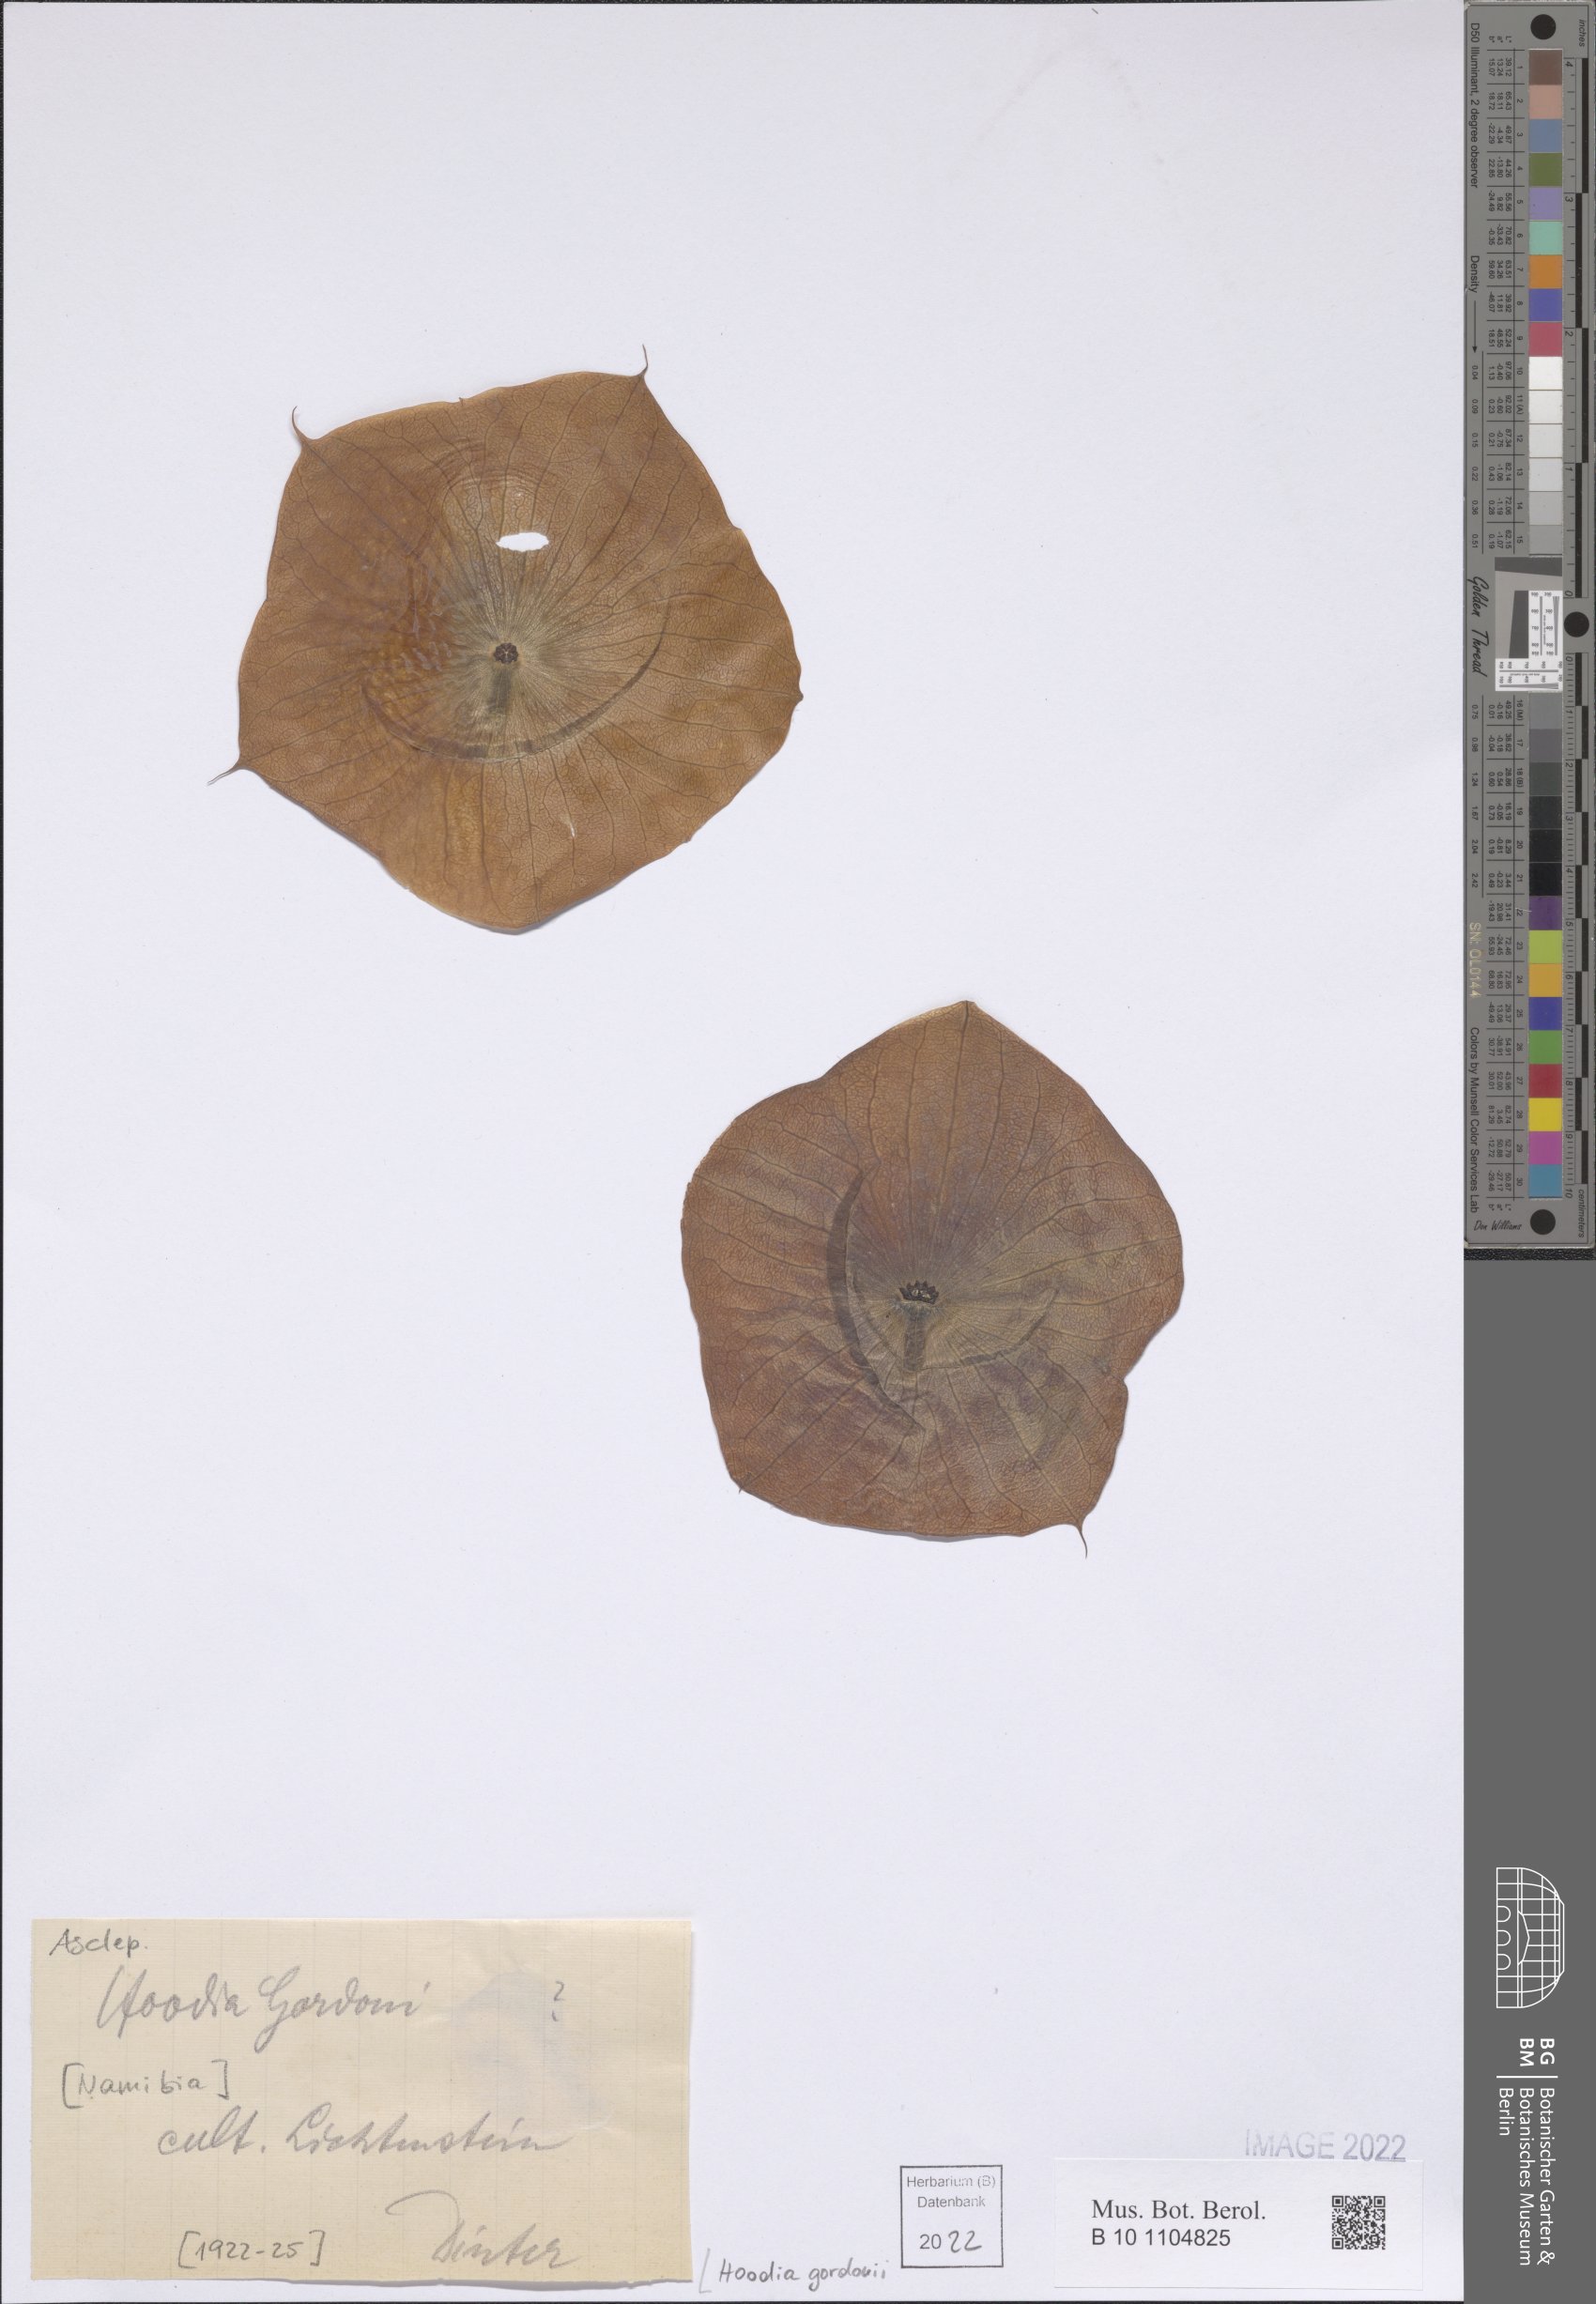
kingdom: Plantae
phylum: Tracheophyta
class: Magnoliopsida
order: Gentianales
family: Apocynaceae
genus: Ceropegia
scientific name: Ceropegia gordonii
